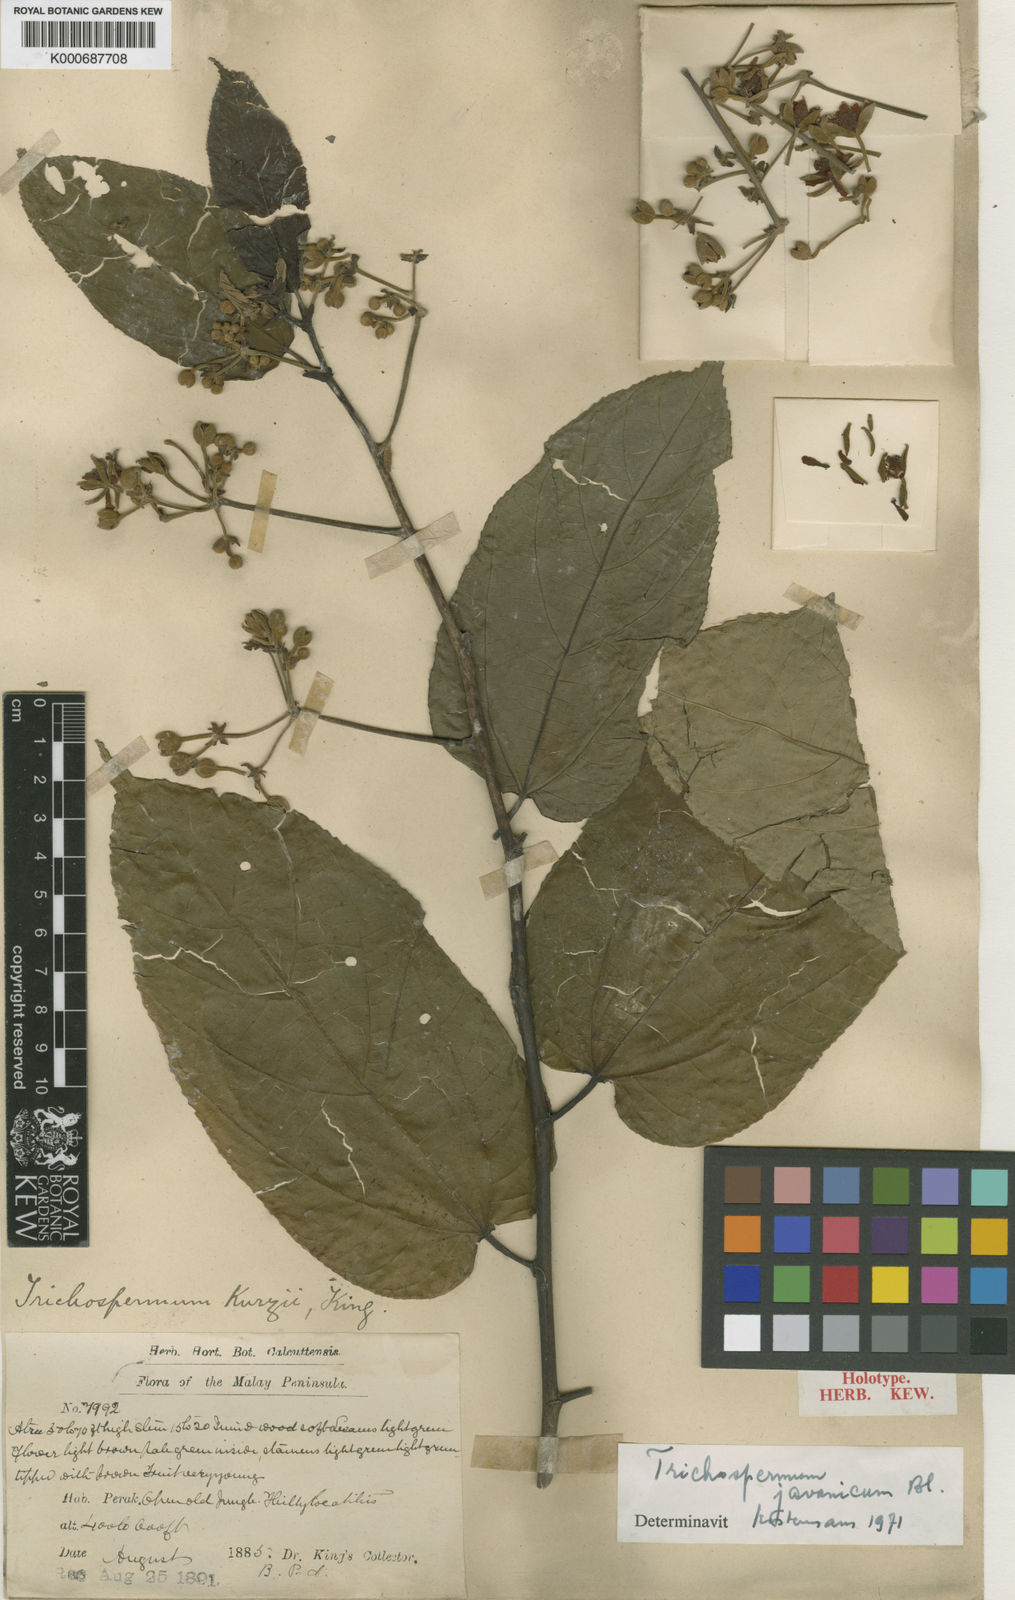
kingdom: Plantae
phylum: Tracheophyta
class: Magnoliopsida
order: Malvales
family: Malvaceae
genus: Trichospermum
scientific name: Trichospermum javanicum
